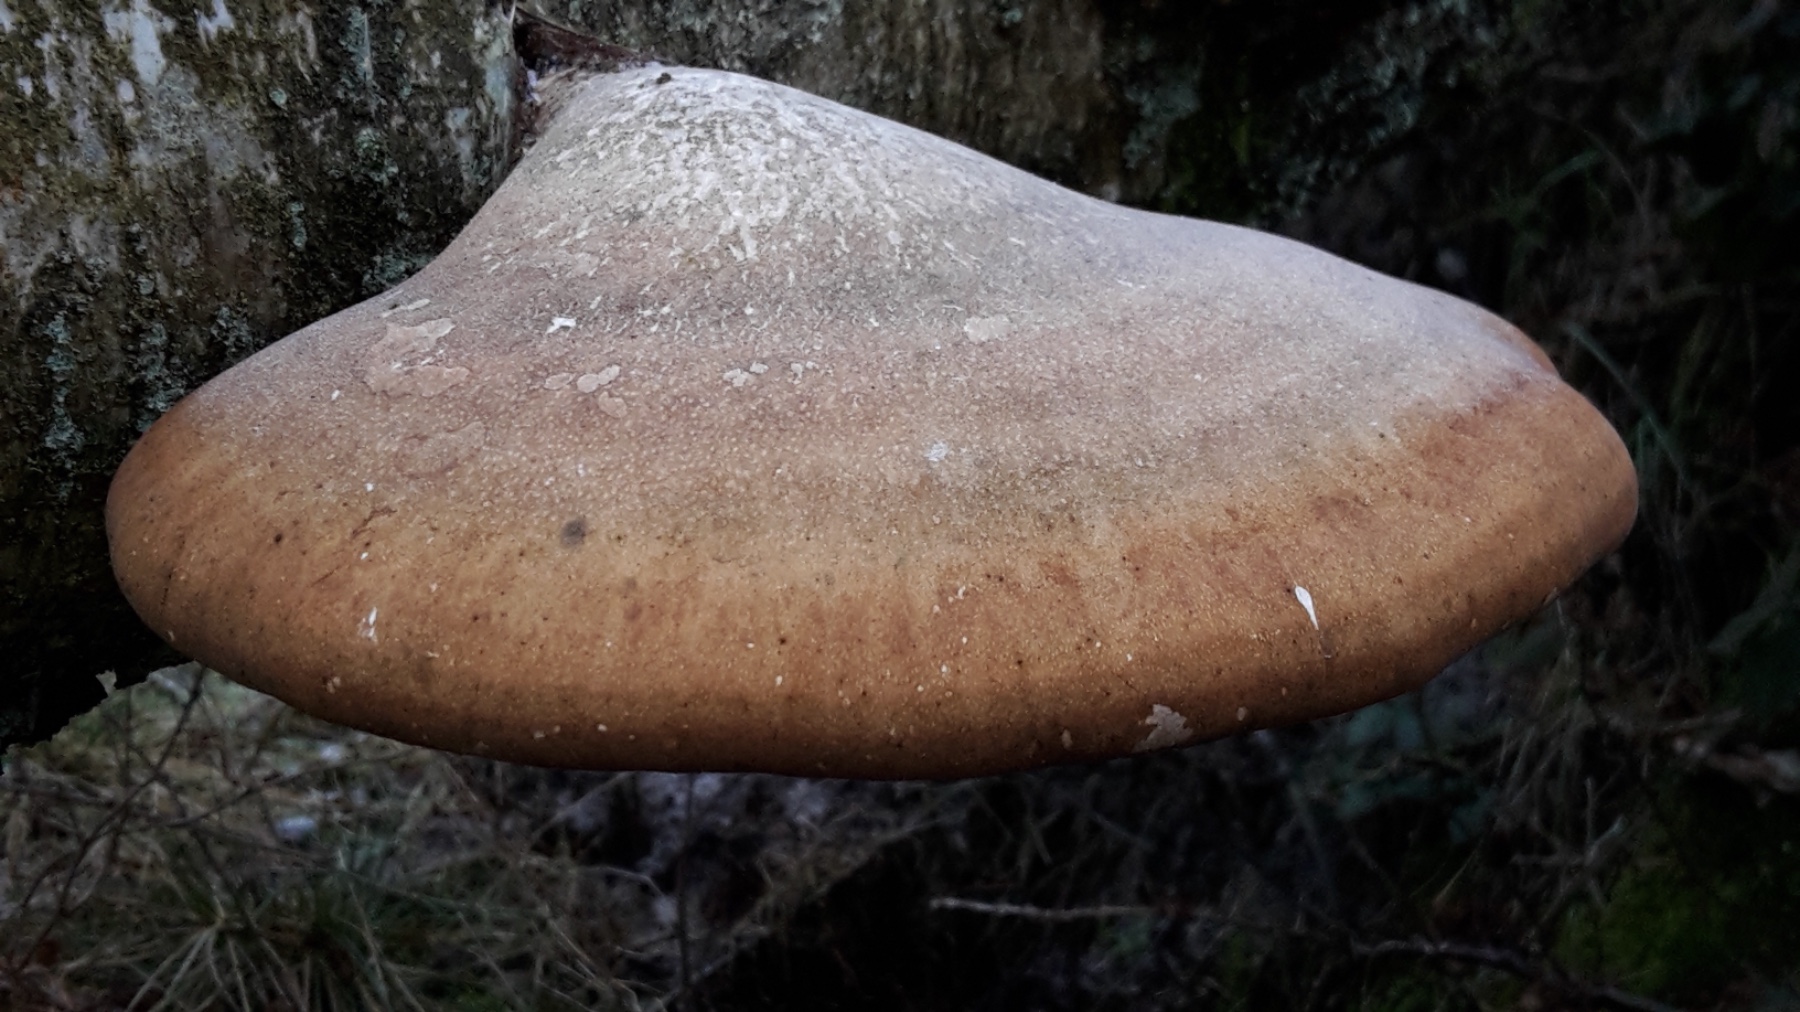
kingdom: Fungi
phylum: Basidiomycota
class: Agaricomycetes
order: Polyporales
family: Fomitopsidaceae
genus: Fomitopsis
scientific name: Fomitopsis betulina
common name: birkeporesvamp
